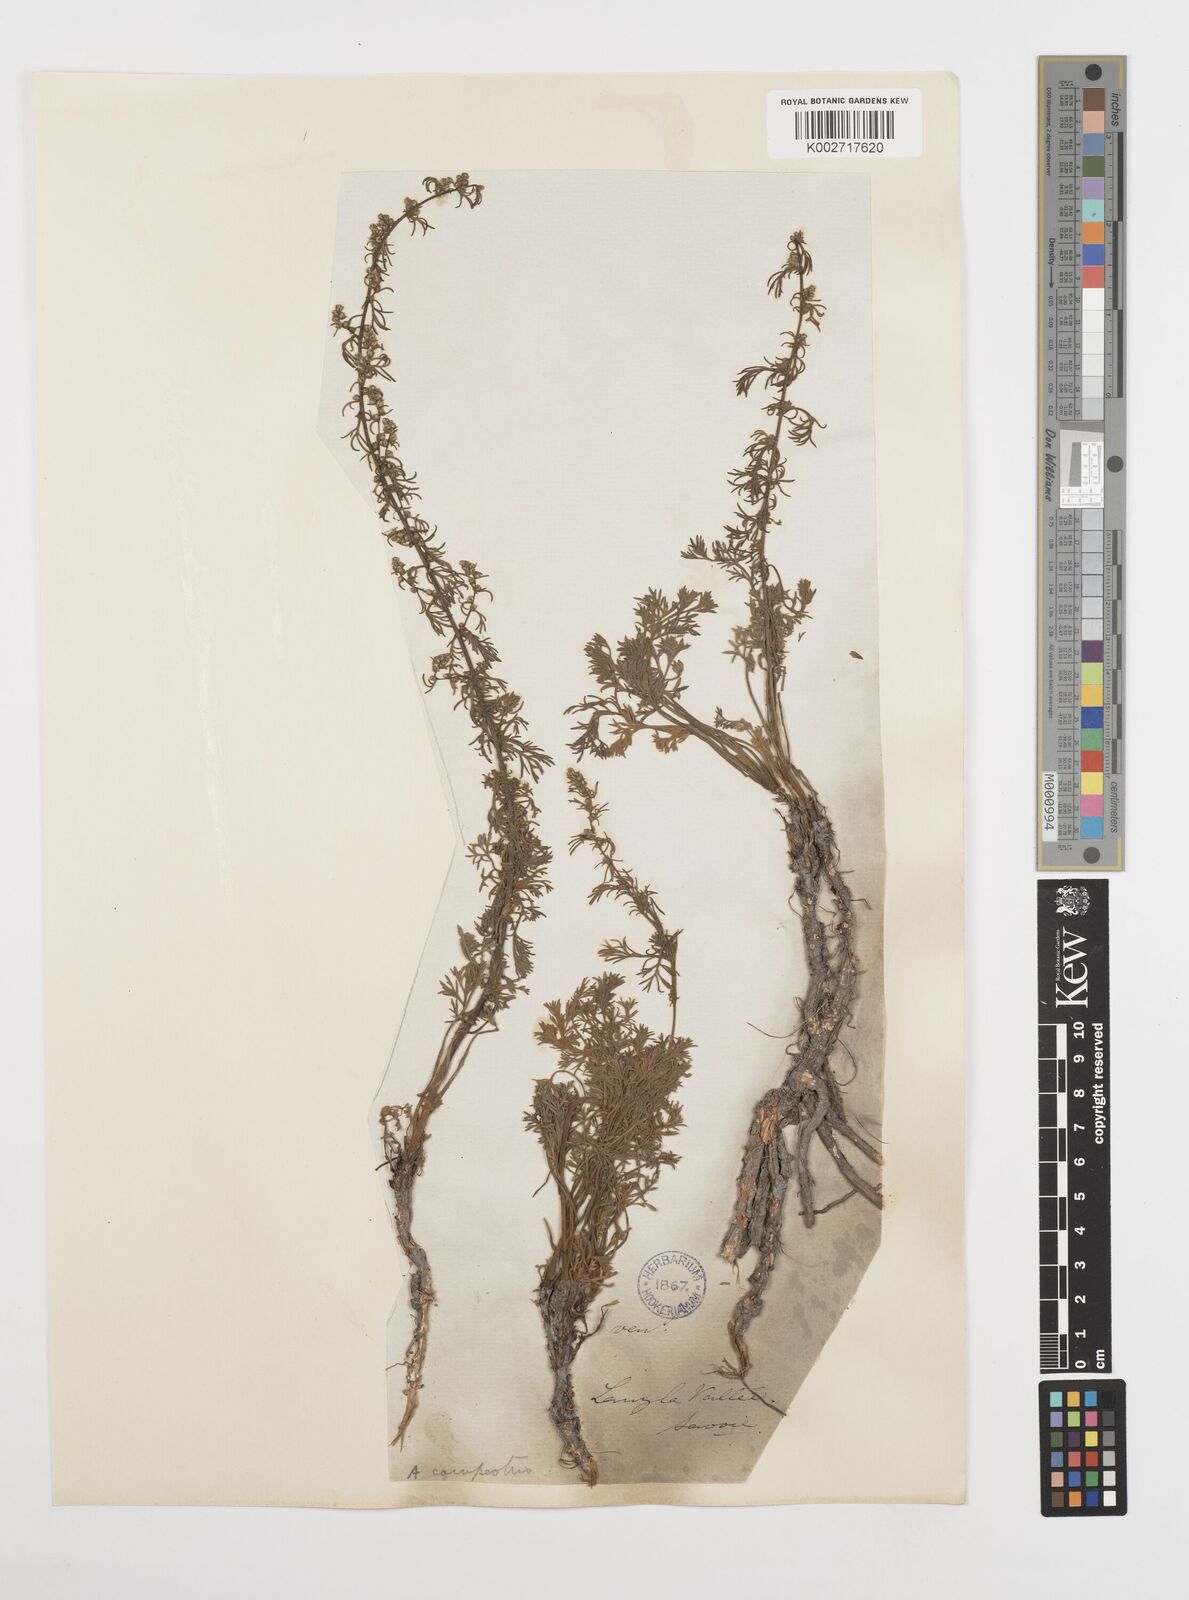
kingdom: Plantae
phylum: Tracheophyta
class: Magnoliopsida
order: Asterales
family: Asteraceae
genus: Artemisia
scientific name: Artemisia campestris
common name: Field wormwood
